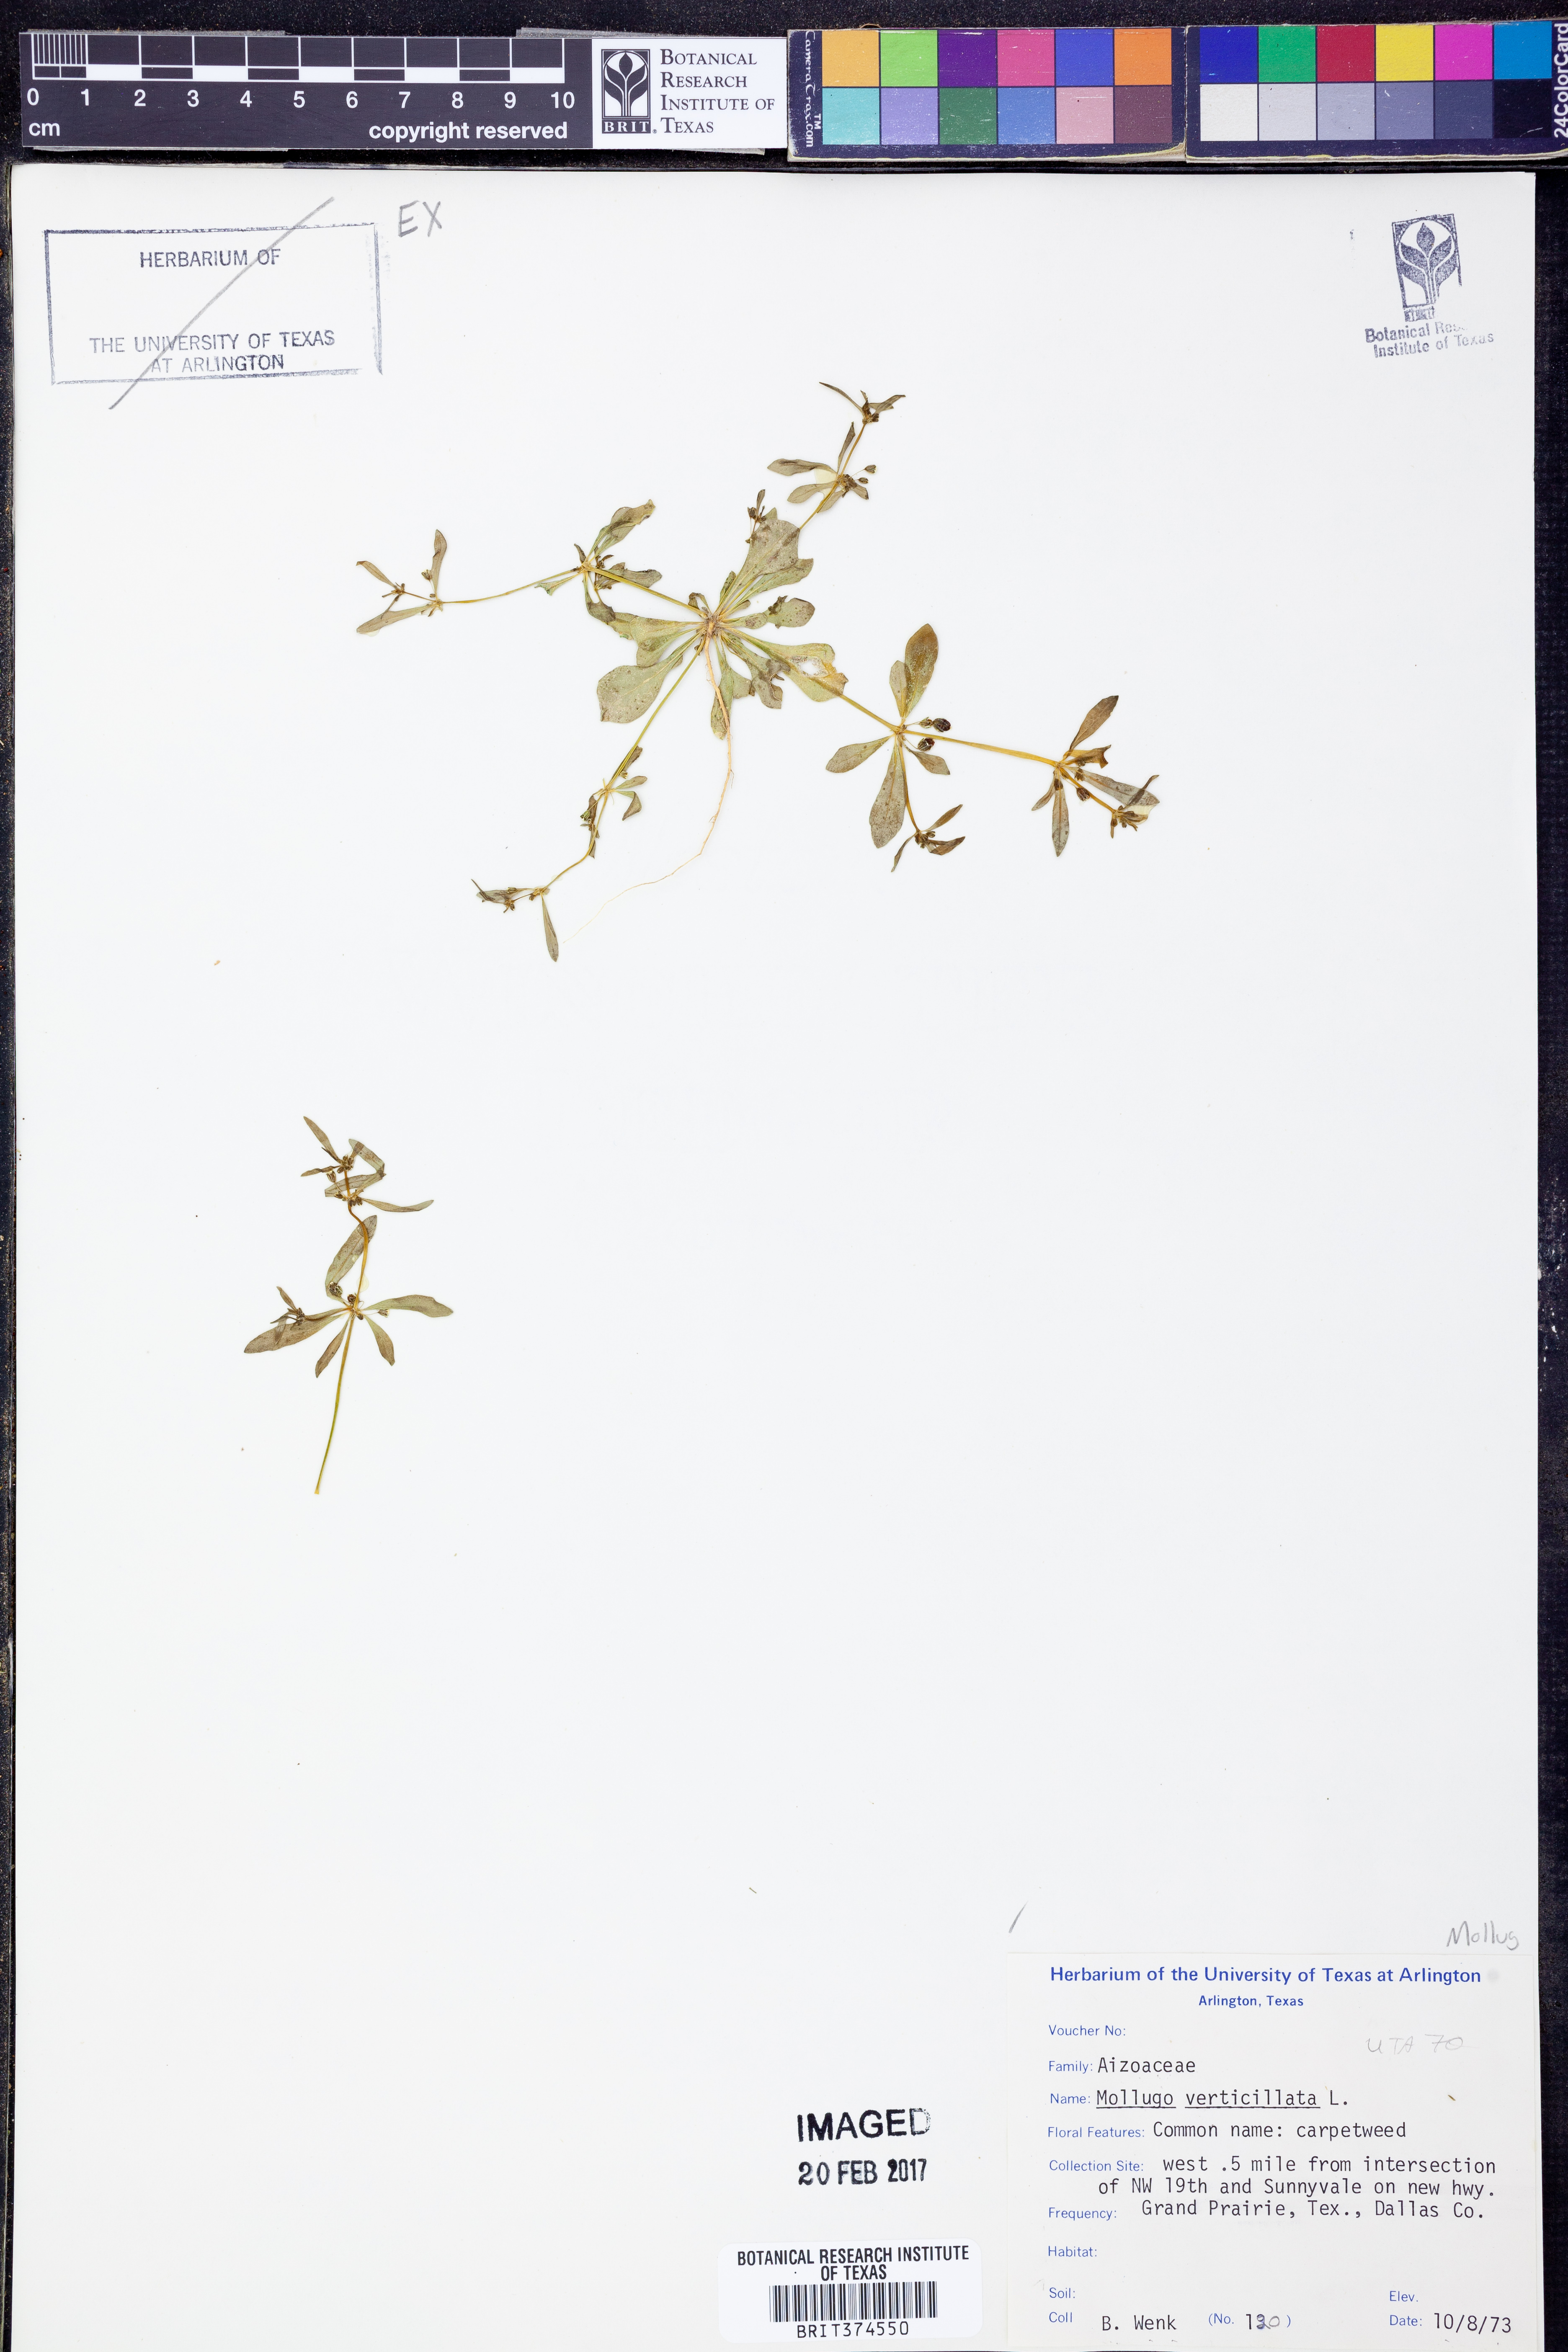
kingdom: Plantae
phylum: Tracheophyta
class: Magnoliopsida
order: Caryophyllales
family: Molluginaceae
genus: Mollugo
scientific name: Mollugo verticillata
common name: Green carpetweed
